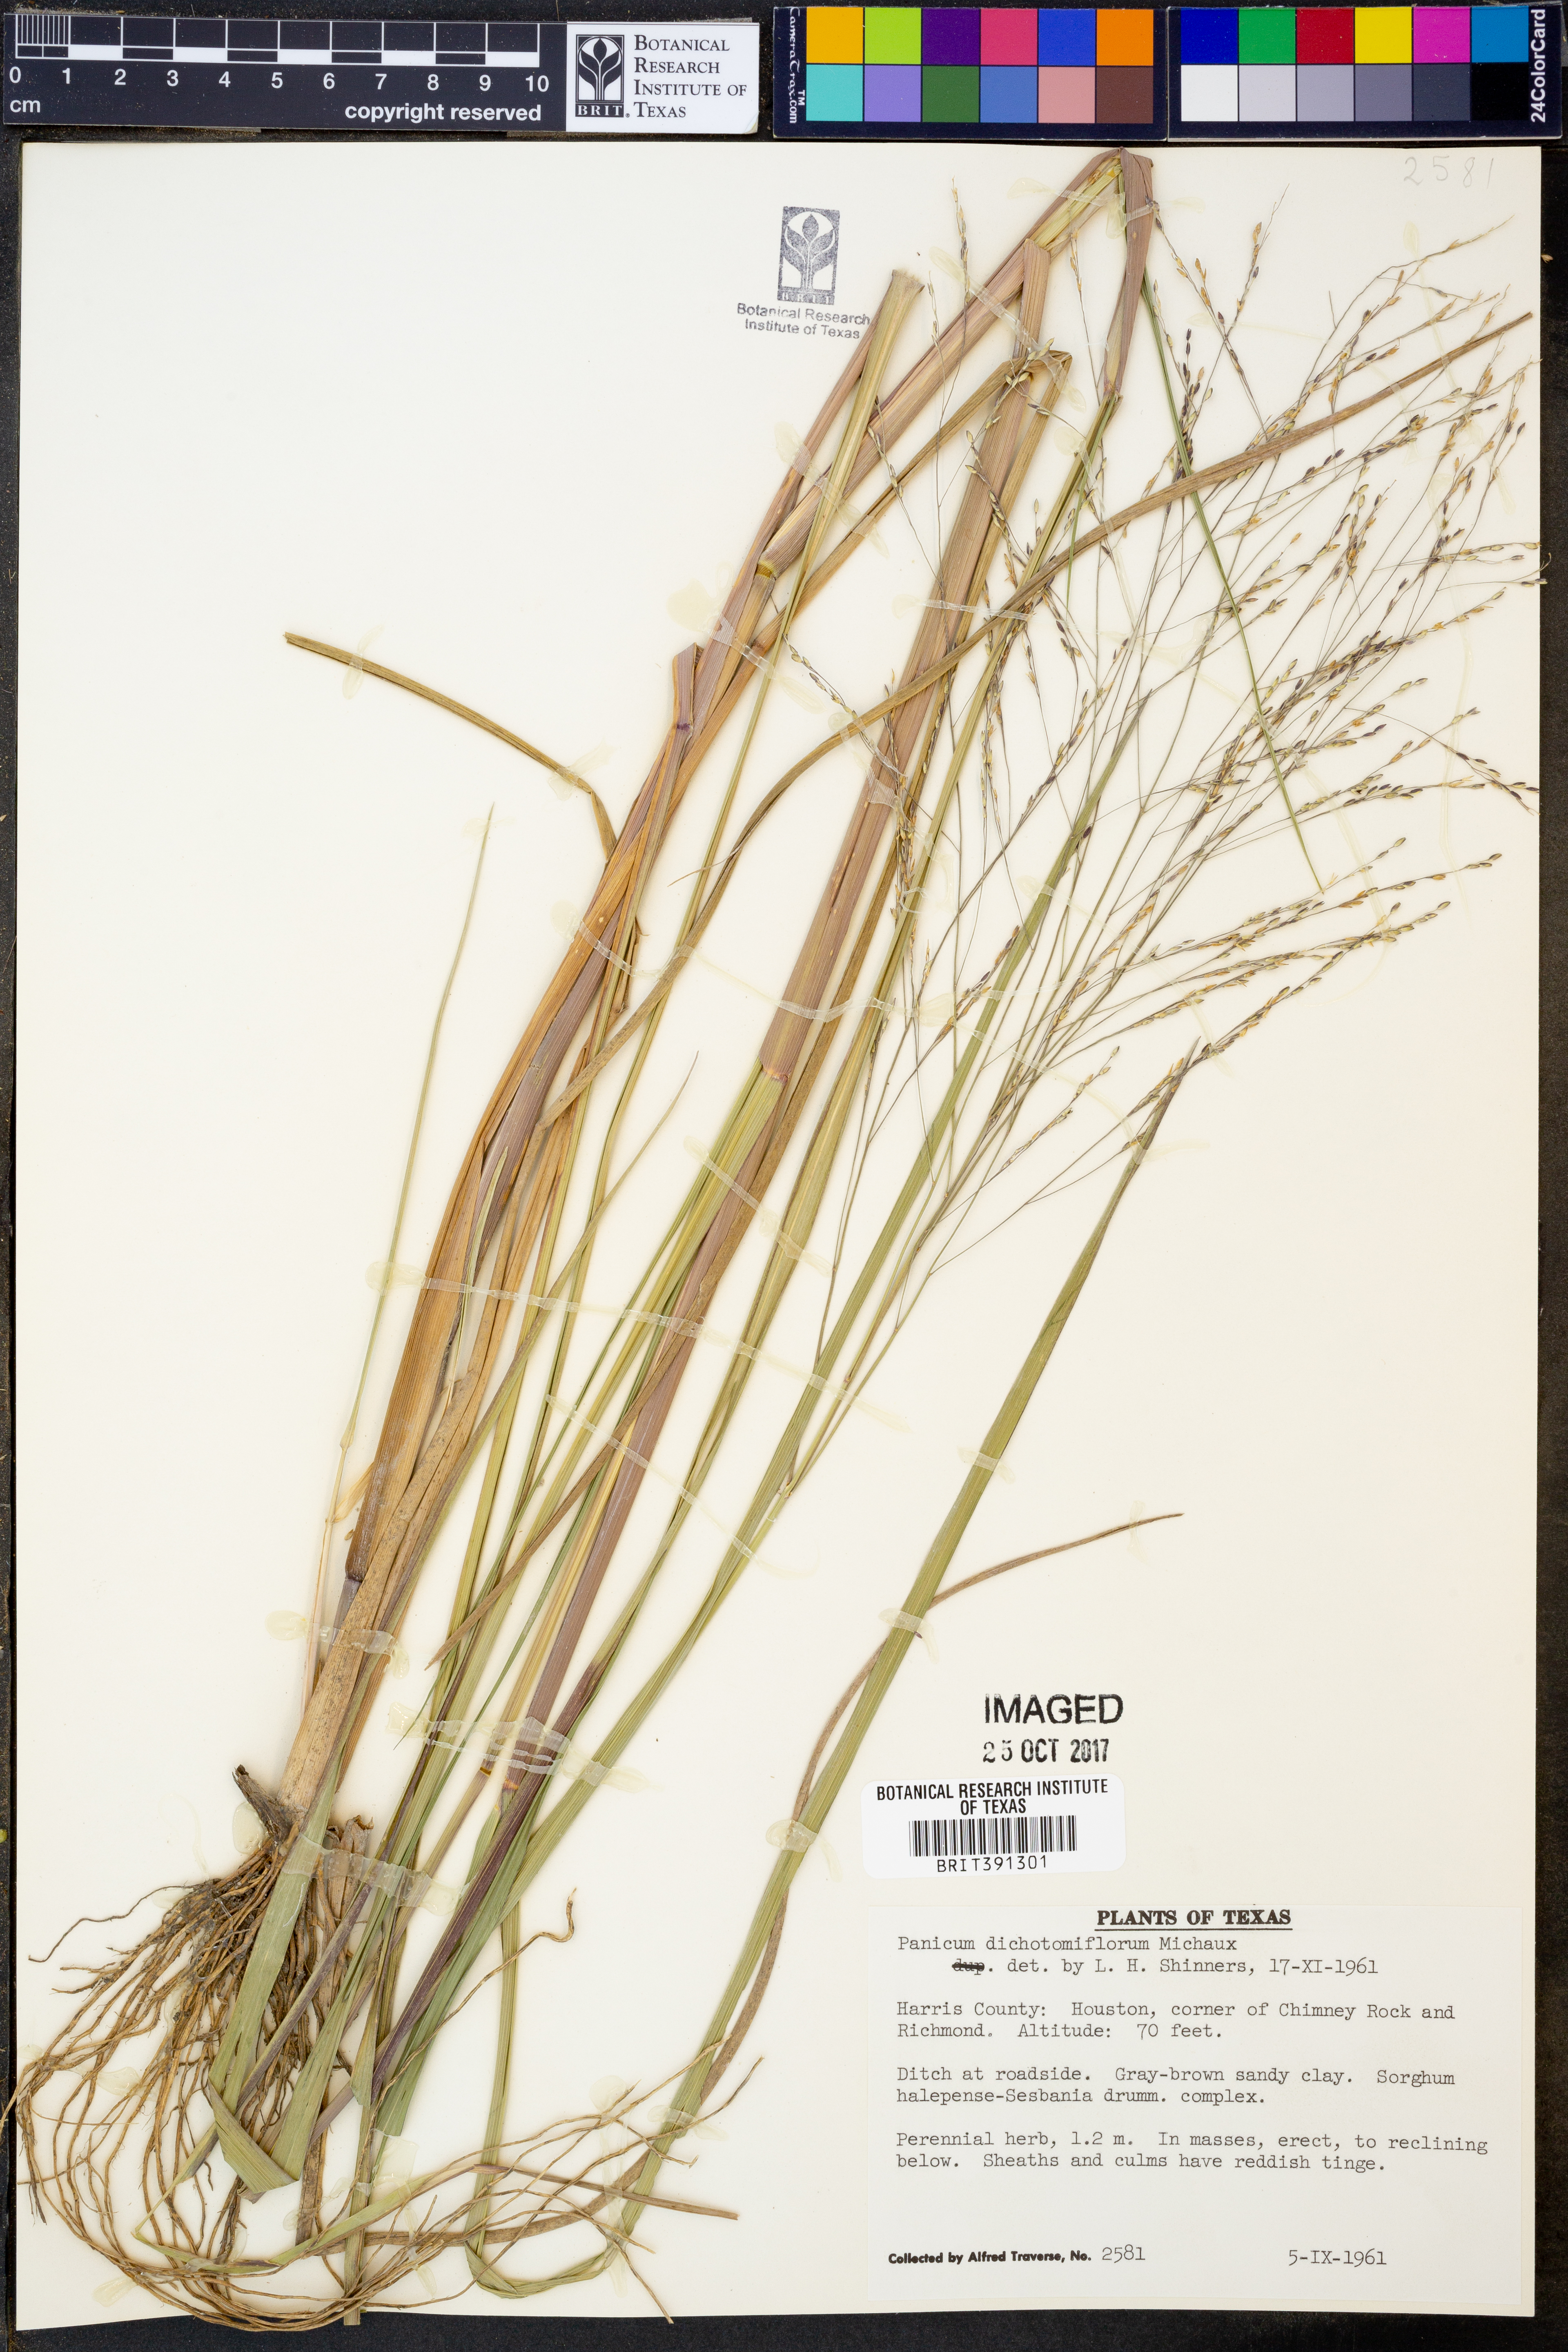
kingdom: Plantae
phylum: Tracheophyta
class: Liliopsida
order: Poales
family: Poaceae
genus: Panicum
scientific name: Panicum dichotomiflorum
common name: Autumn millet
